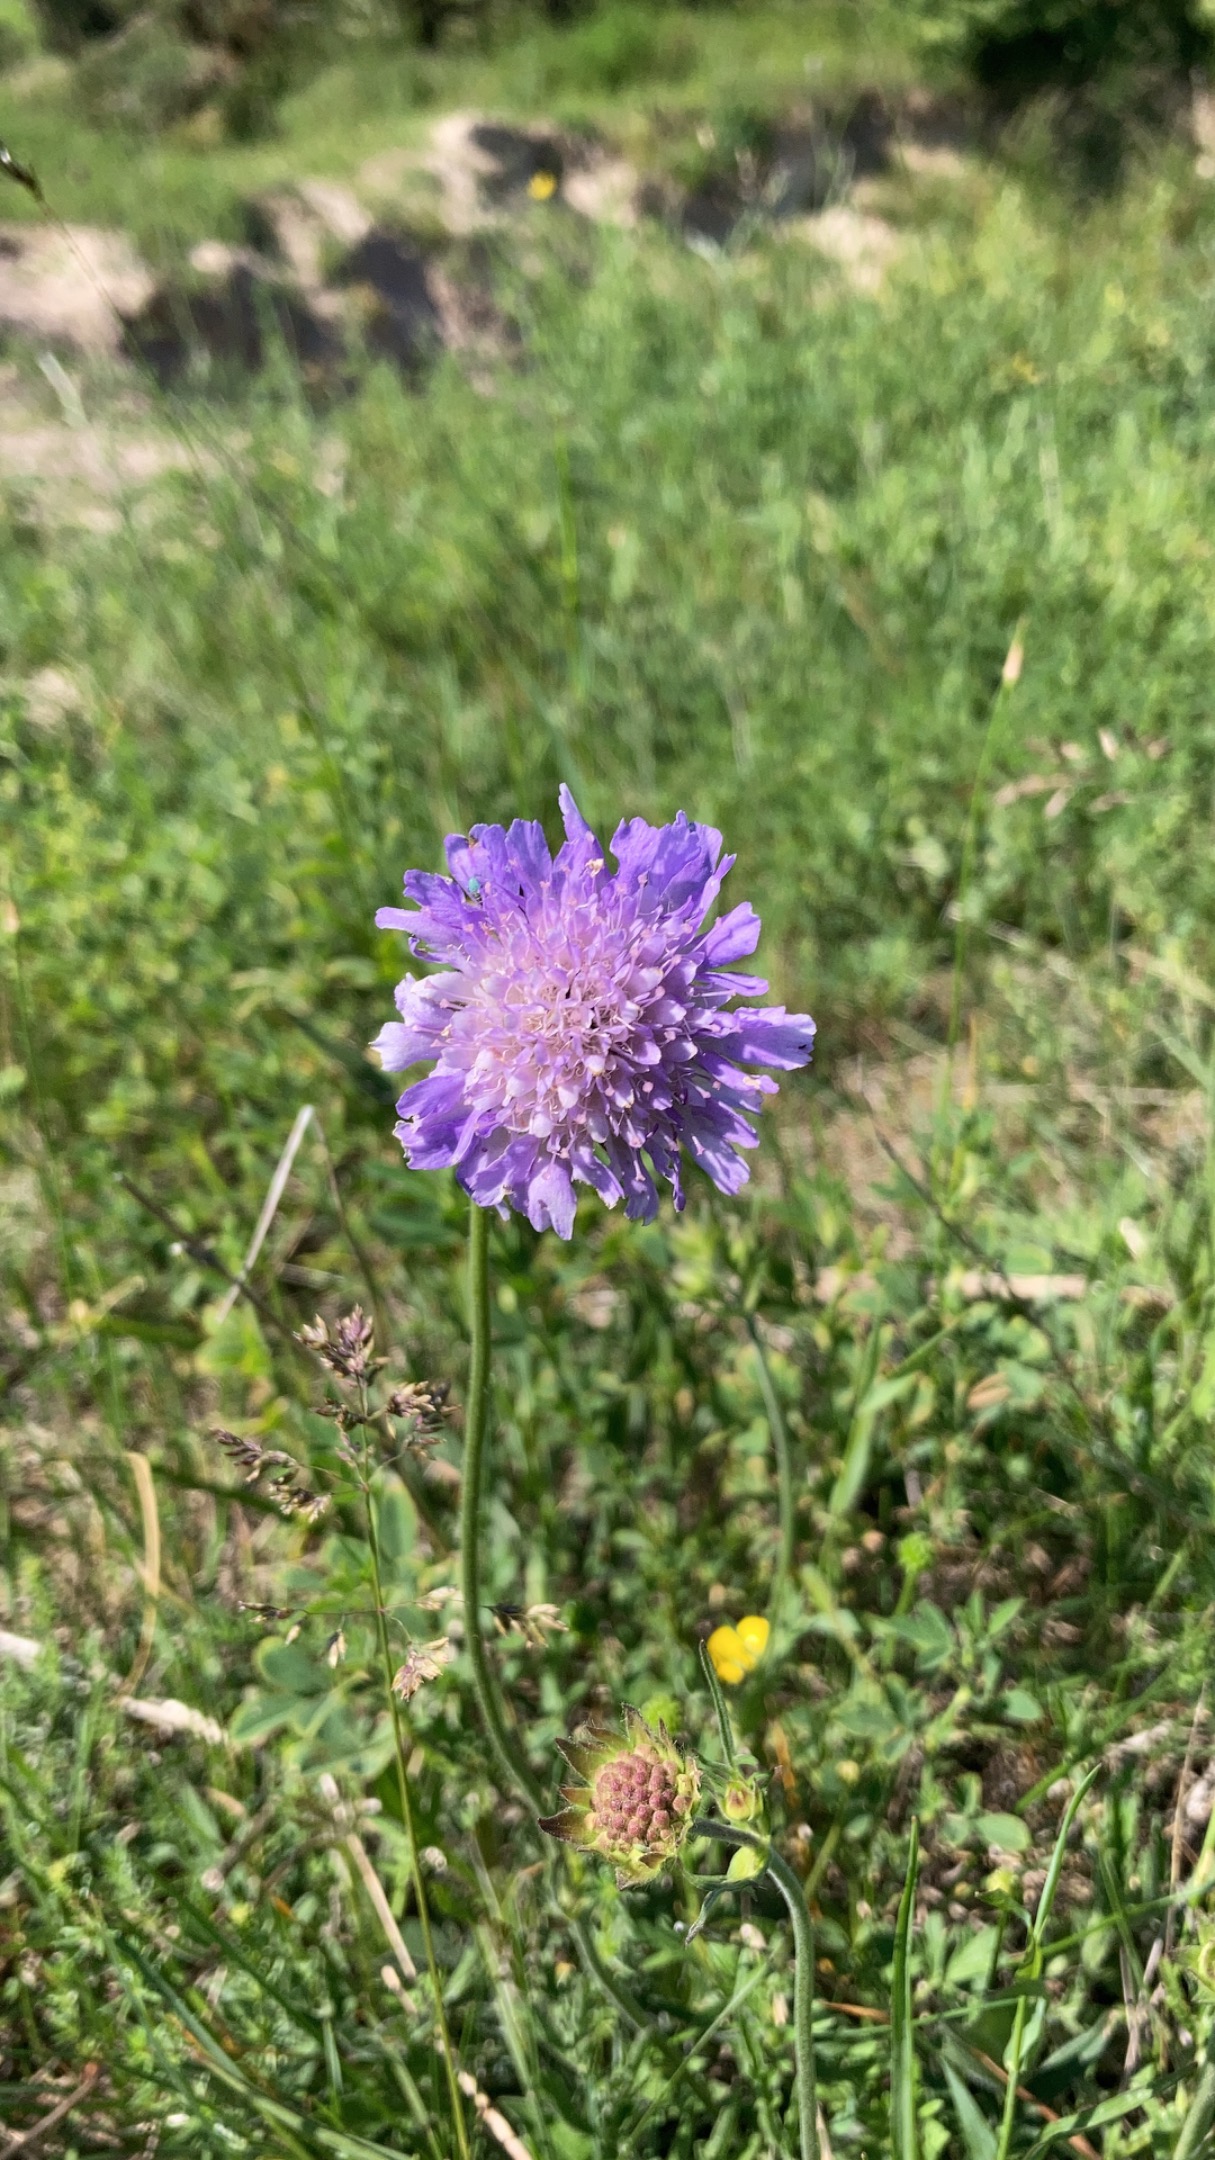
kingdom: Plantae
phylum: Tracheophyta
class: Magnoliopsida
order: Dipsacales
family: Caprifoliaceae
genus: Knautia
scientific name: Knautia arvensis
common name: Blåhat
